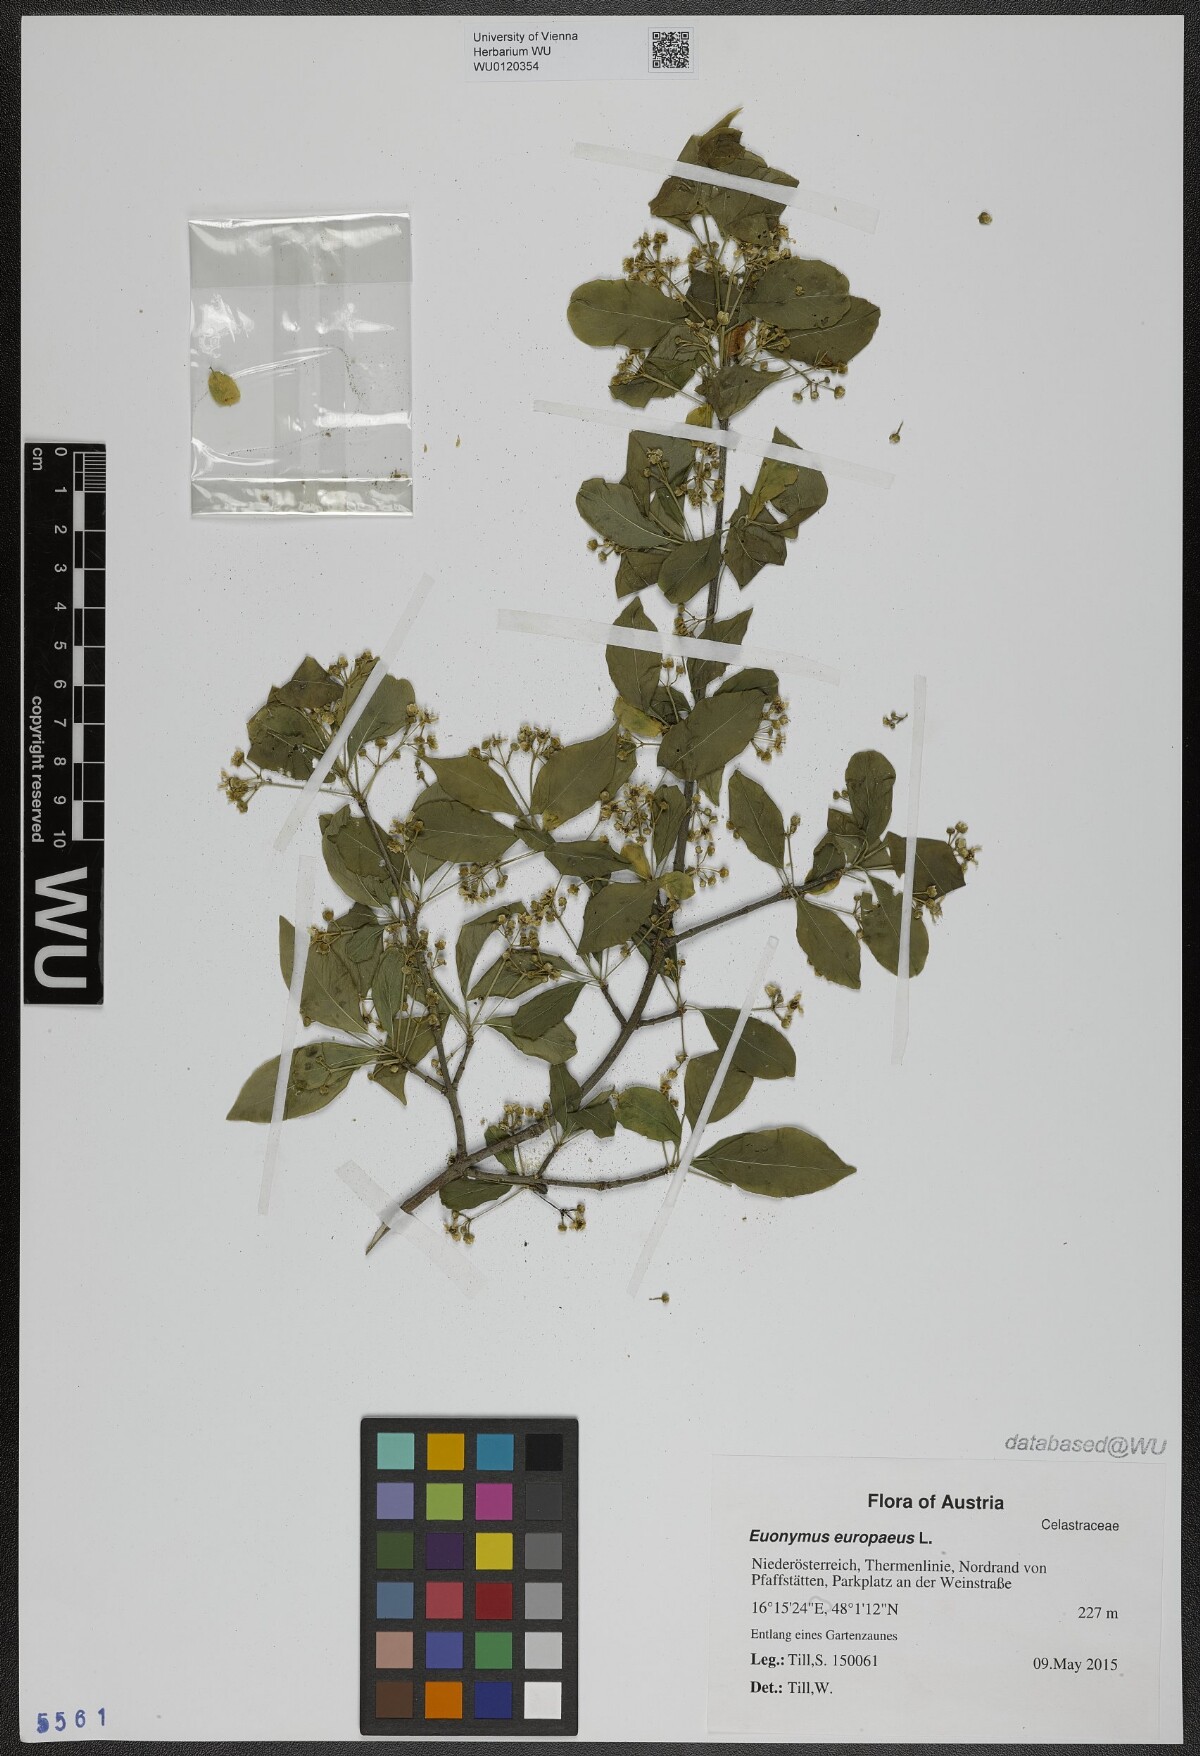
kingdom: Plantae
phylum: Tracheophyta
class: Magnoliopsida
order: Celastrales
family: Celastraceae
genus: Euonymus
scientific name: Euonymus europaeus
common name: Spindle
